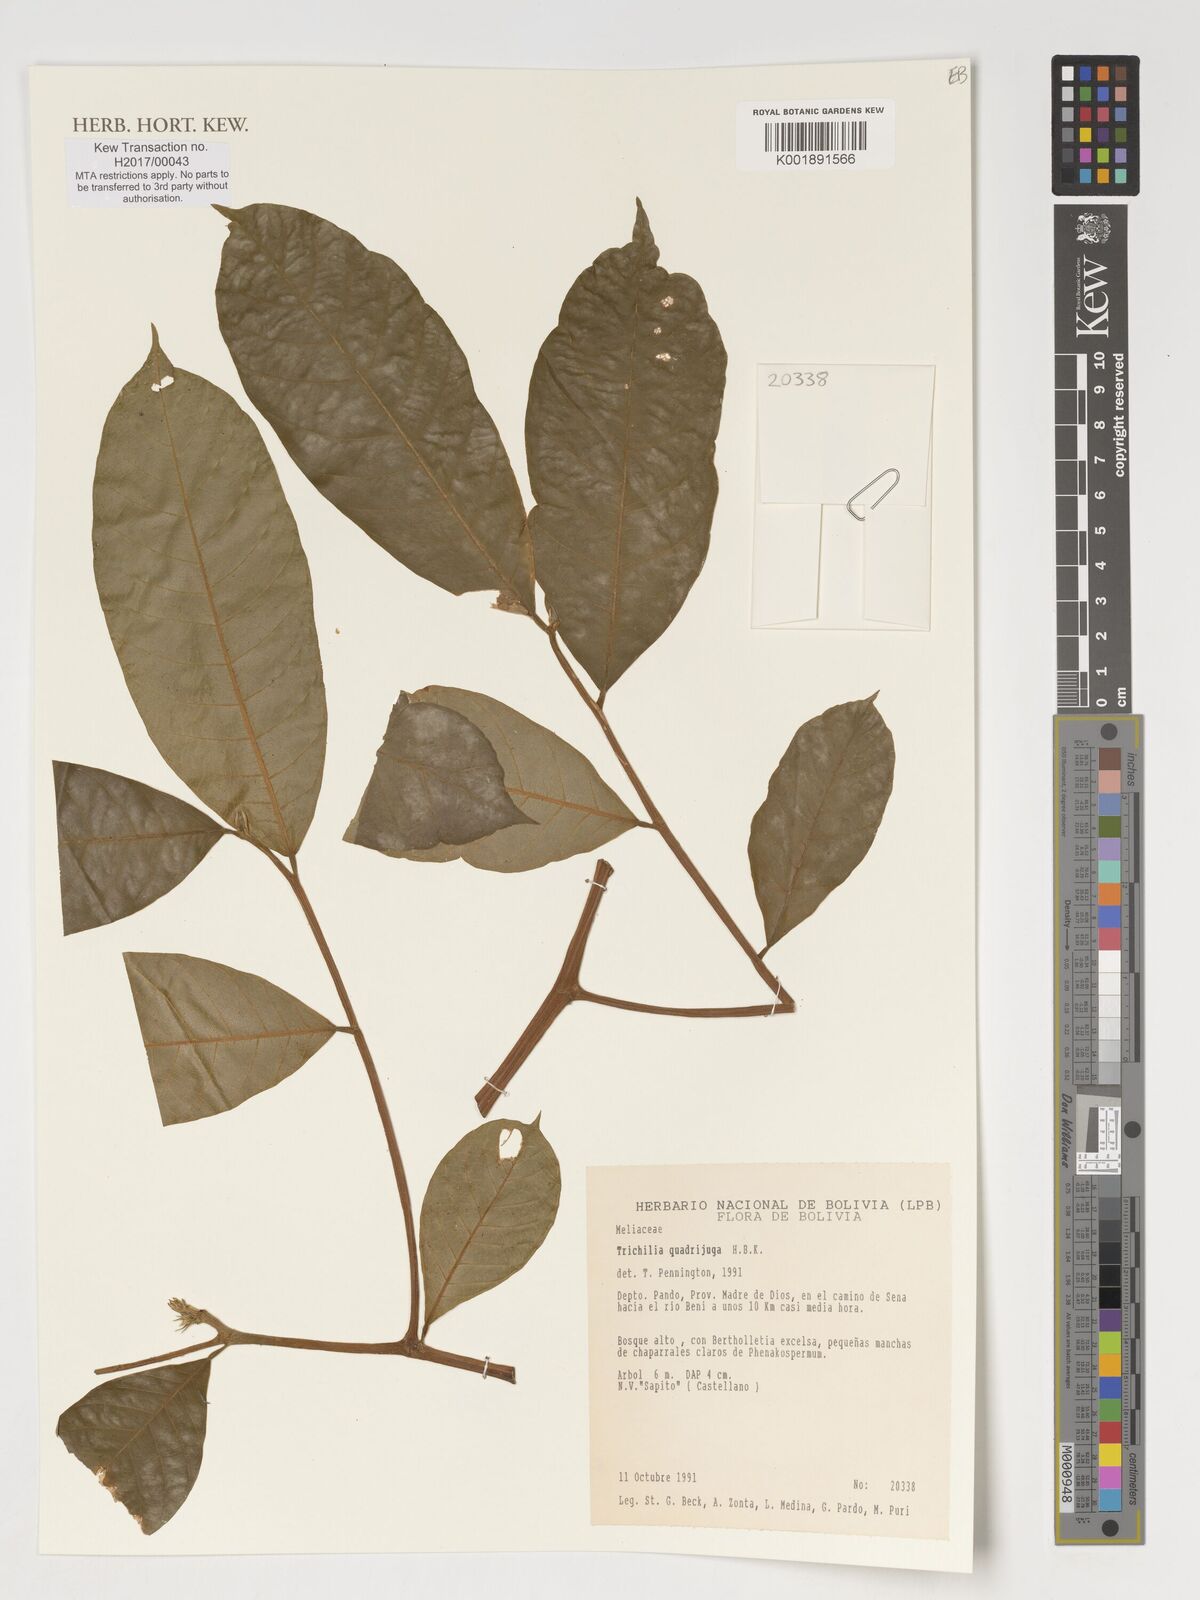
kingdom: Plantae
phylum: Tracheophyta
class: Magnoliopsida
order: Sapindales
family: Meliaceae
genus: Trichilia
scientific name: Trichilia
